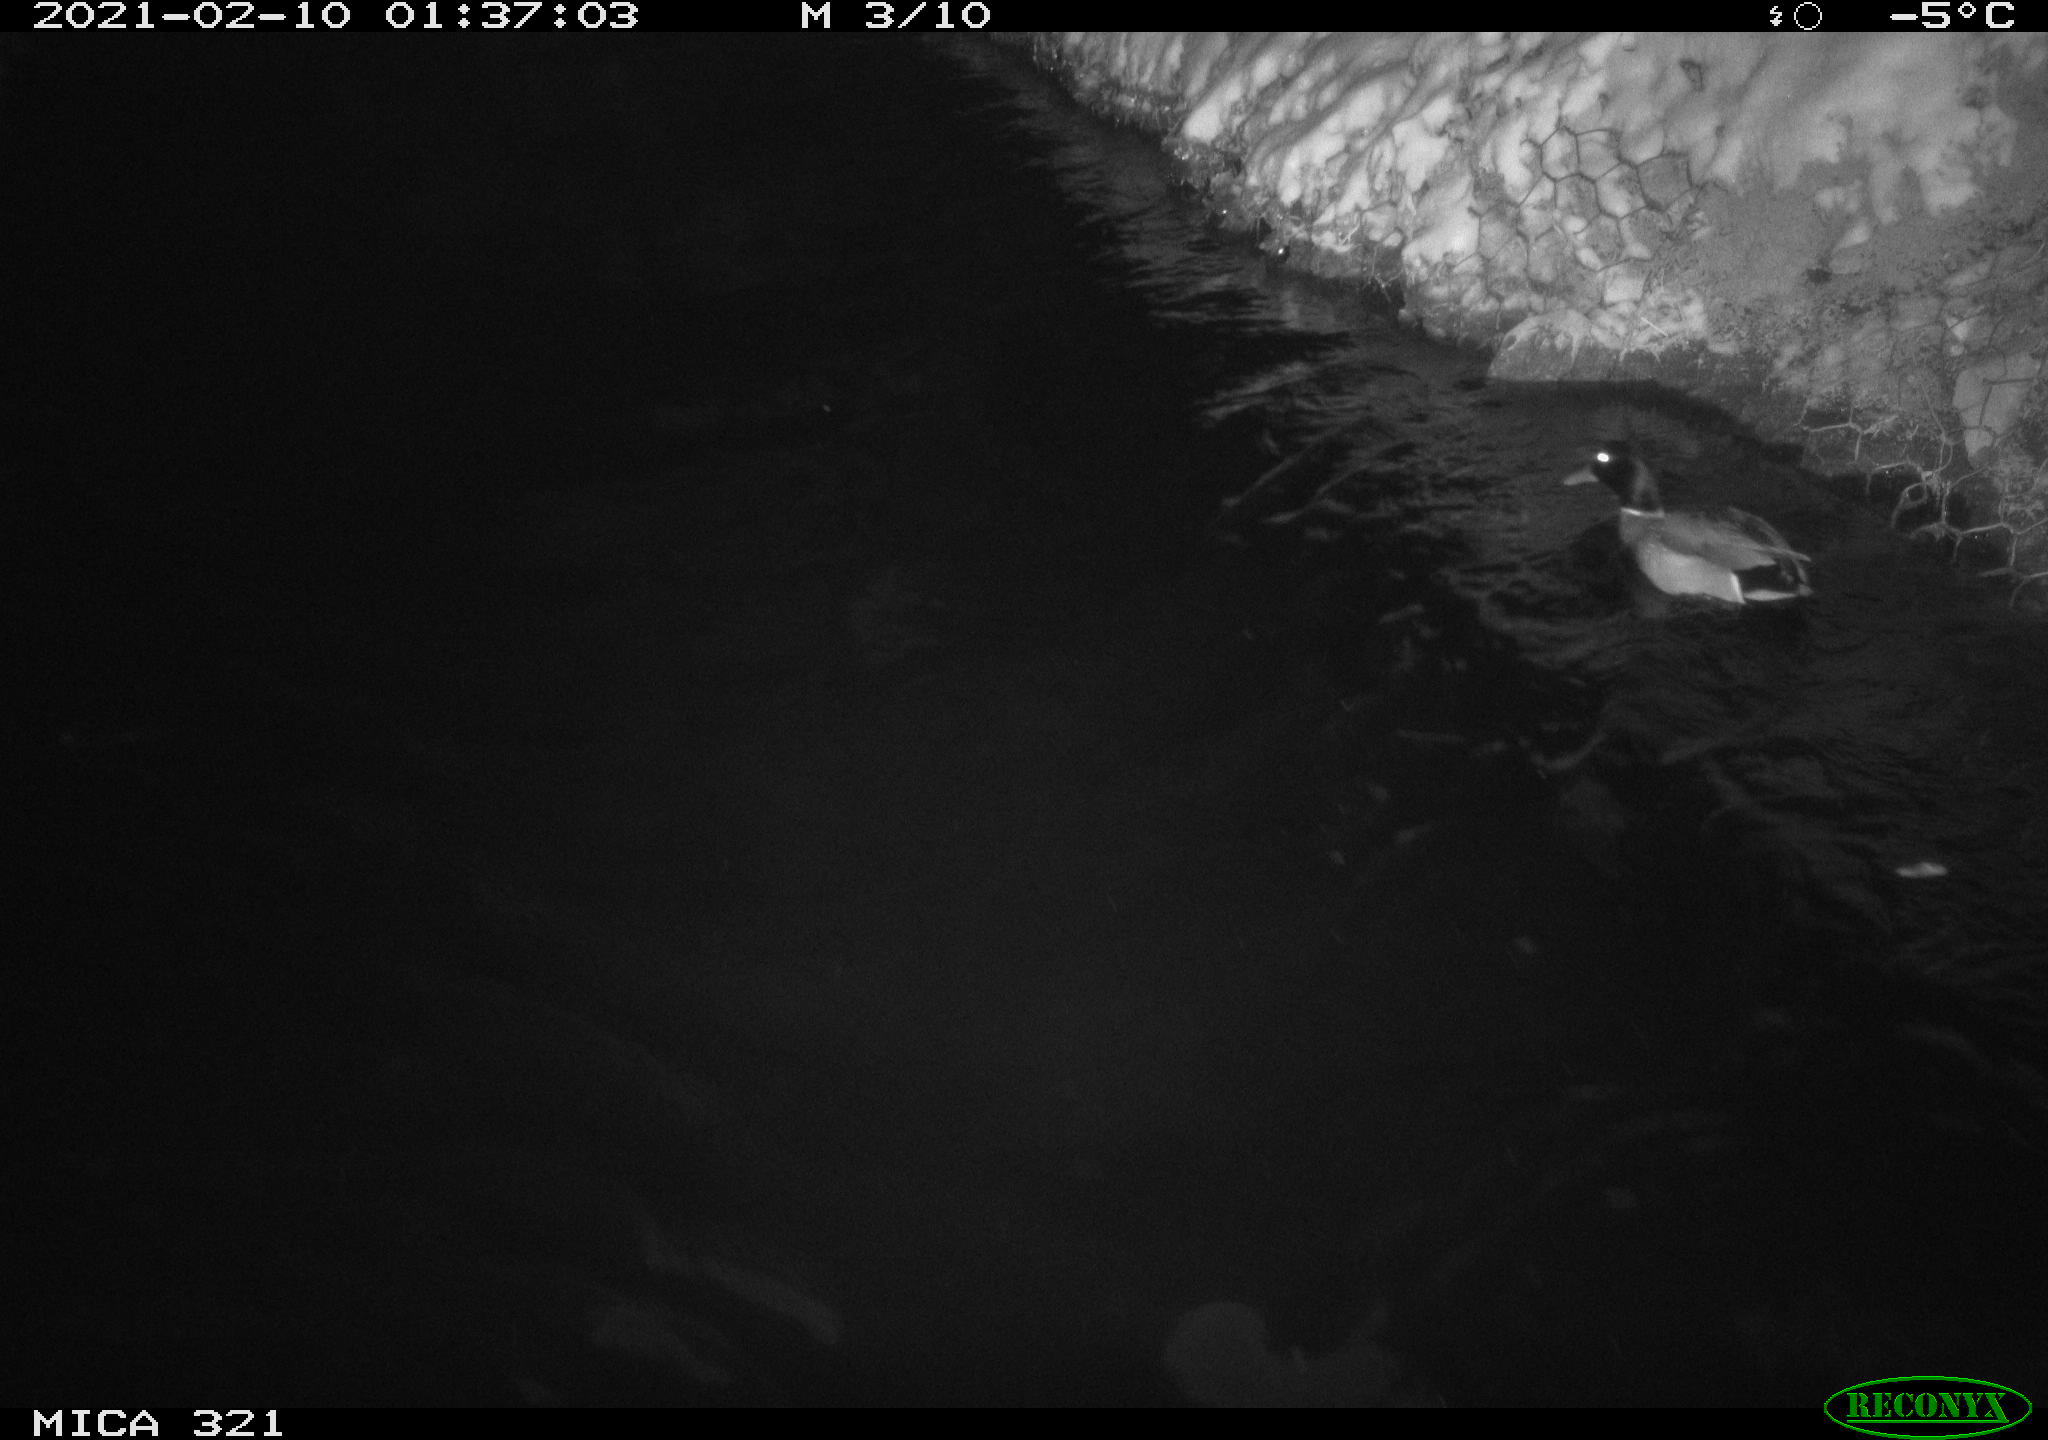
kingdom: Animalia
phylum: Chordata
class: Aves
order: Anseriformes
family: Anatidae
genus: Anas
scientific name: Anas platyrhynchos
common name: Mallard
